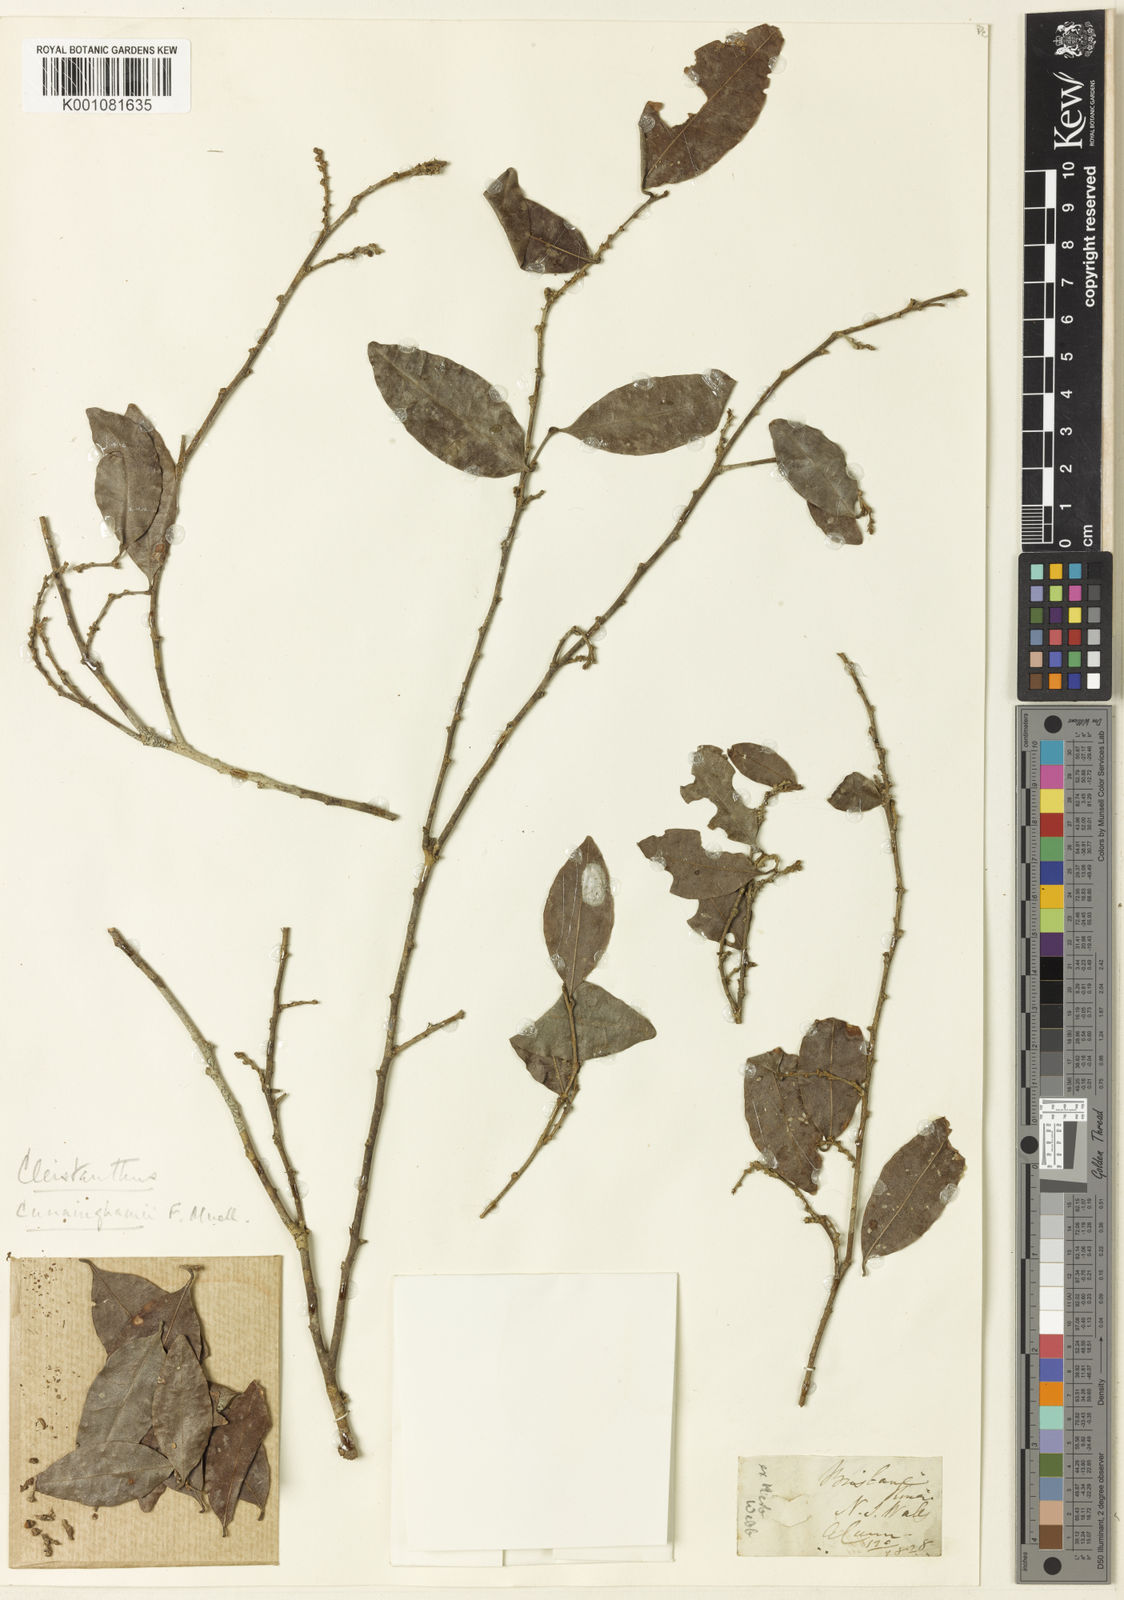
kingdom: Plantae
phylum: Tracheophyta
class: Magnoliopsida
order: Malpighiales
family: Phyllanthaceae
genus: Cleistanthus
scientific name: Cleistanthus
